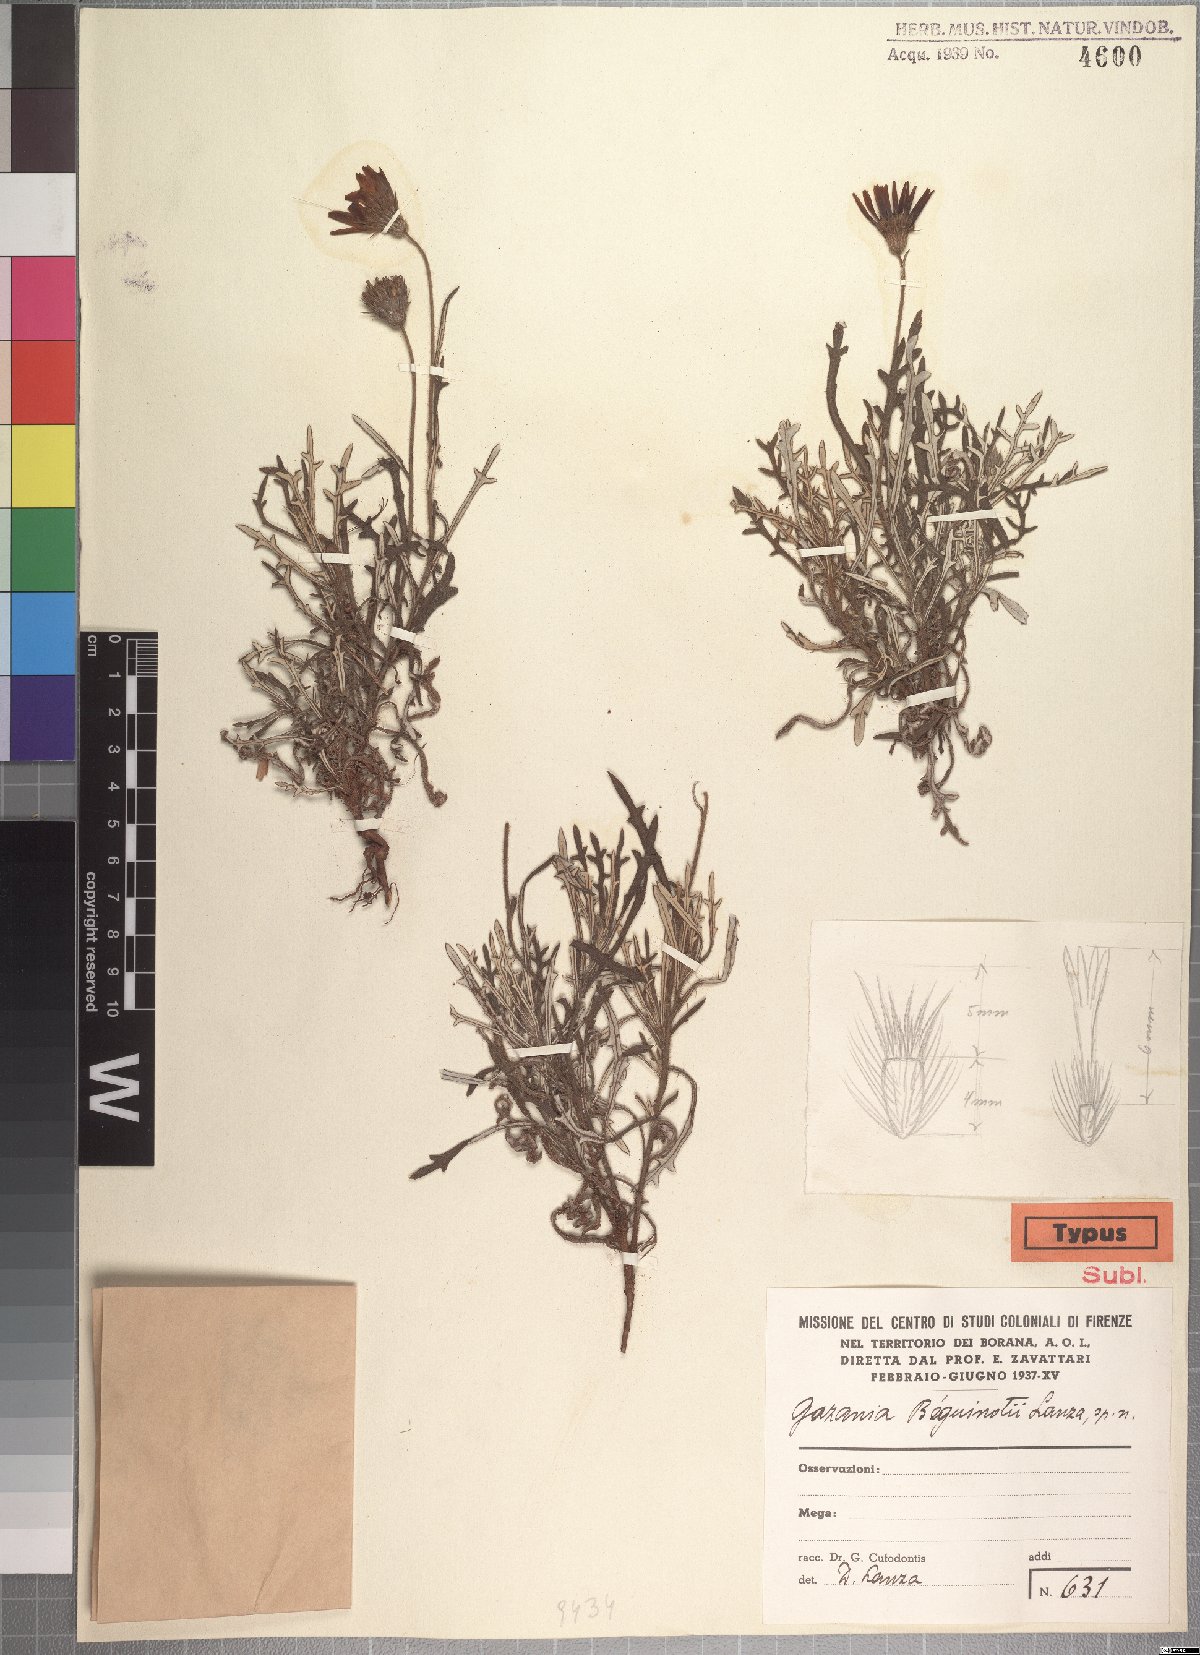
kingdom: Plantae
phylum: Tracheophyta
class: Magnoliopsida
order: Asterales
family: Asteraceae
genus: Gorteria
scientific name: Gorteria beguinotii
